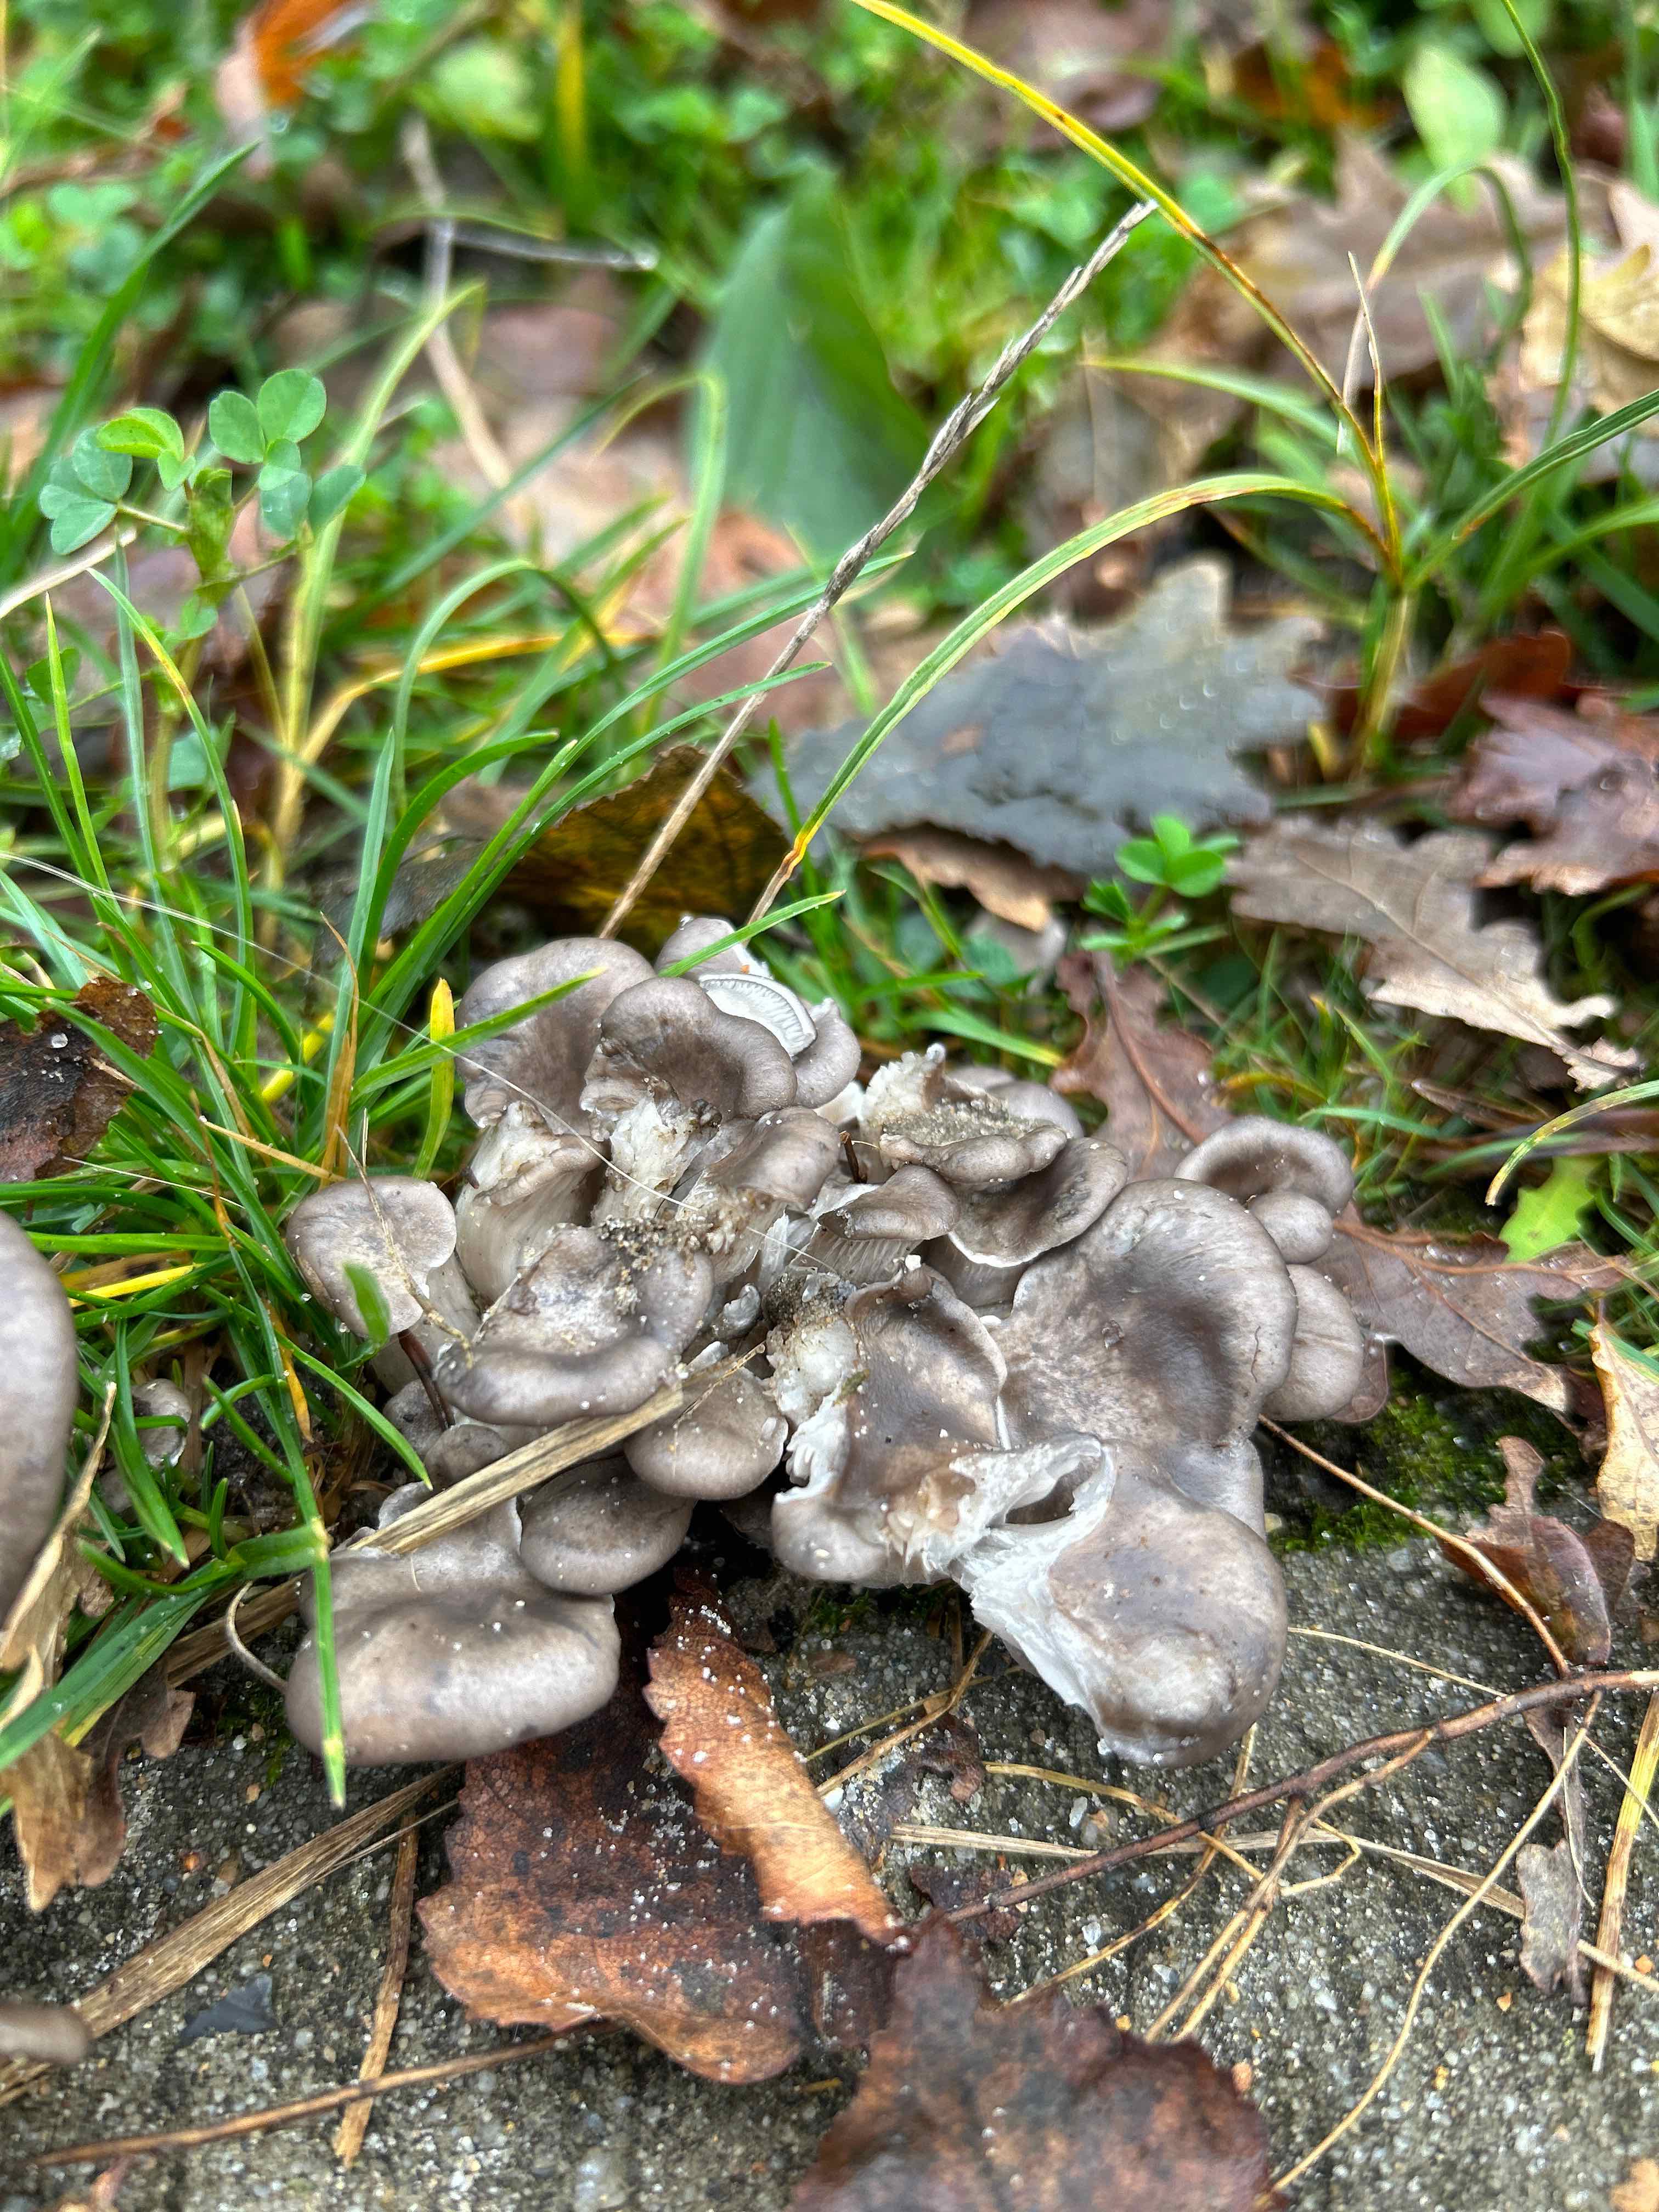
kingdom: Fungi
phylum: Basidiomycota
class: Agaricomycetes
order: Agaricales
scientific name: Agaricales
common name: champignonordenen
